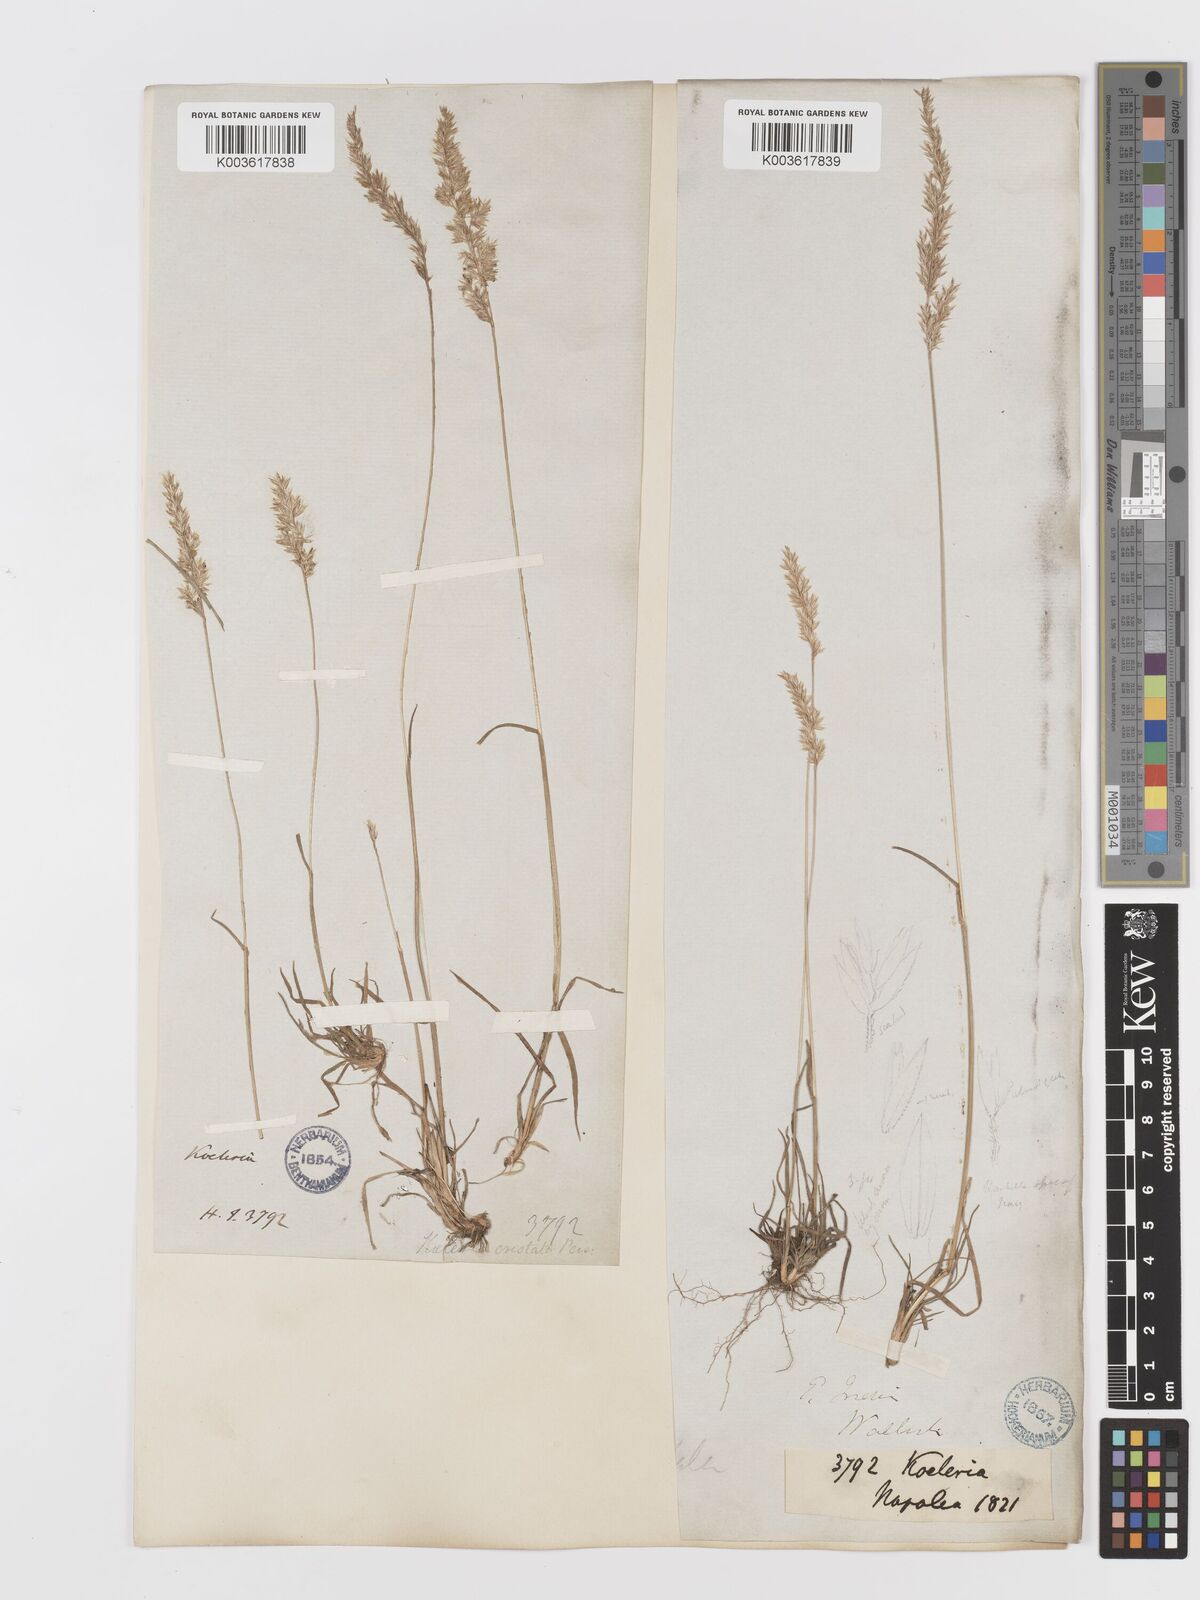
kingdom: Plantae
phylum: Tracheophyta
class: Liliopsida
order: Poales
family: Poaceae
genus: Koeleria
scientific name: Koeleria macrantha
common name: Crested hair-grass
